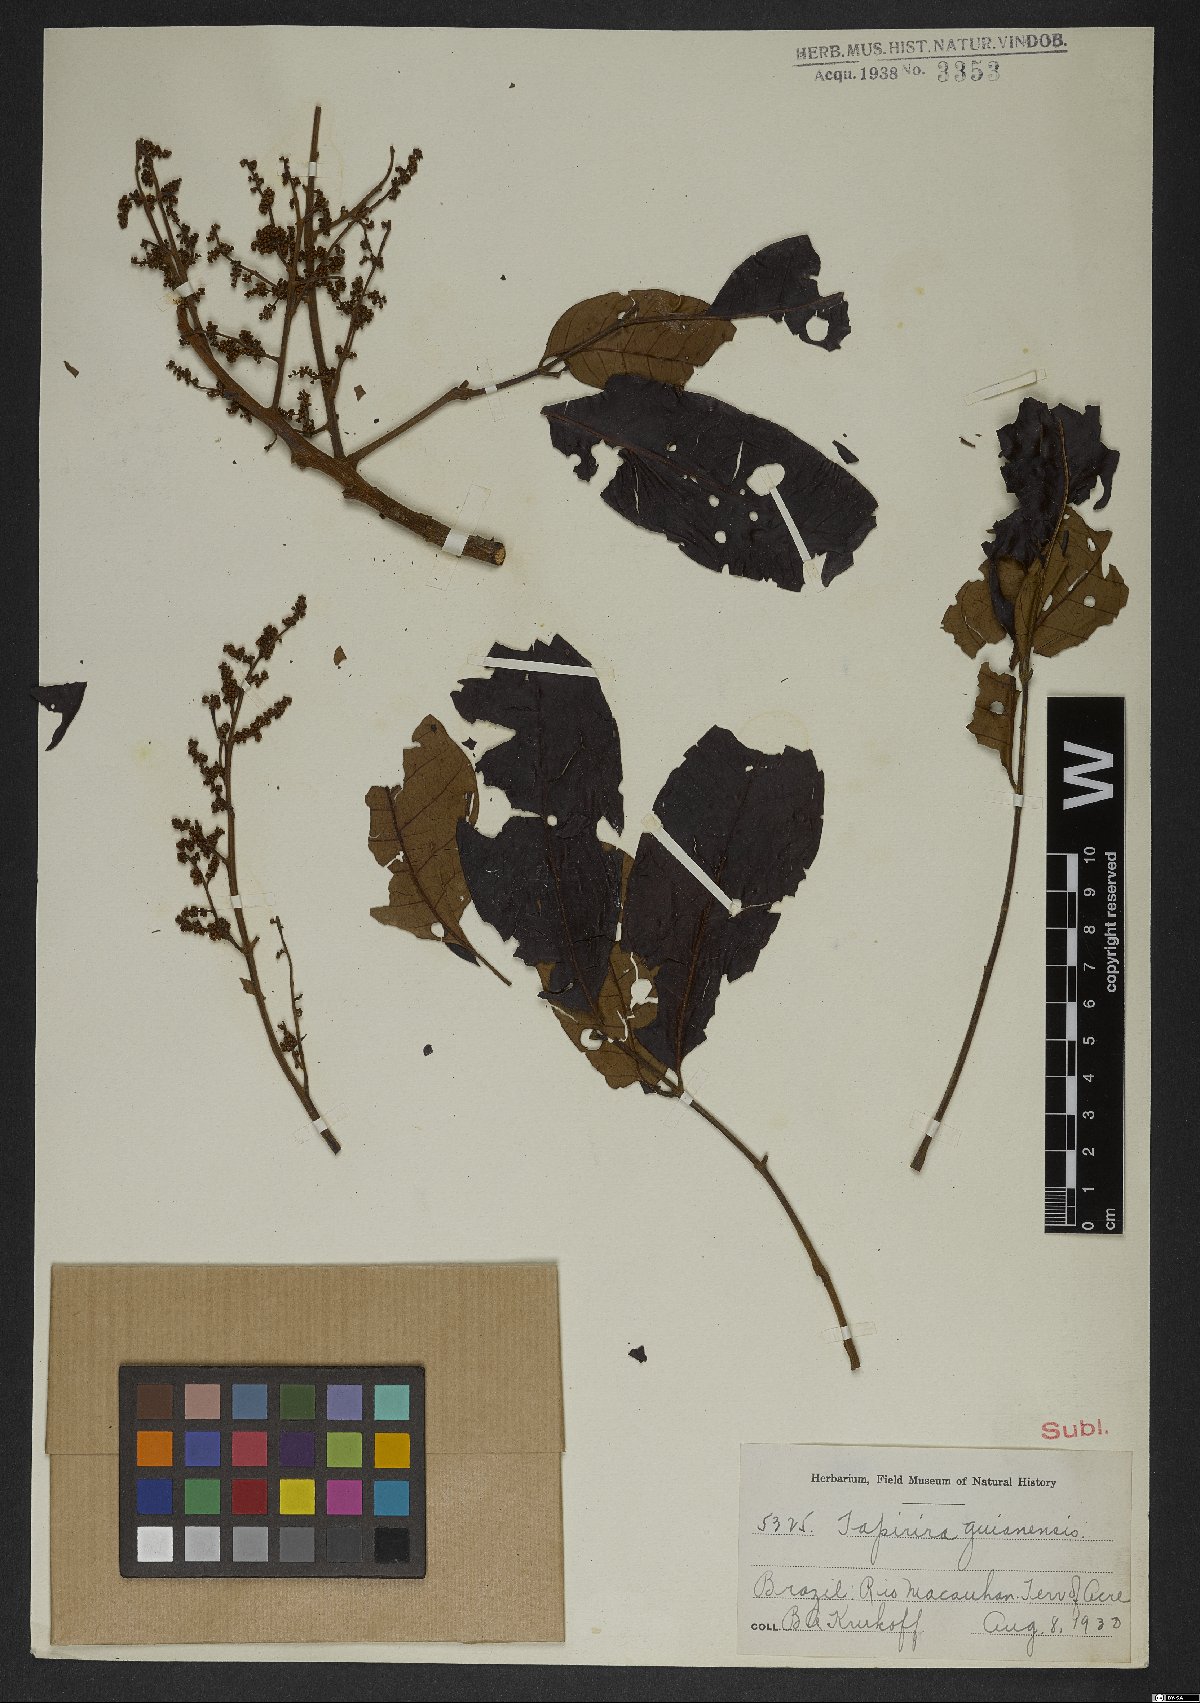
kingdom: Plantae
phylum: Tracheophyta
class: Magnoliopsida
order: Sapindales
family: Anacardiaceae
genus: Tapirira
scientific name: Tapirira guianensis
